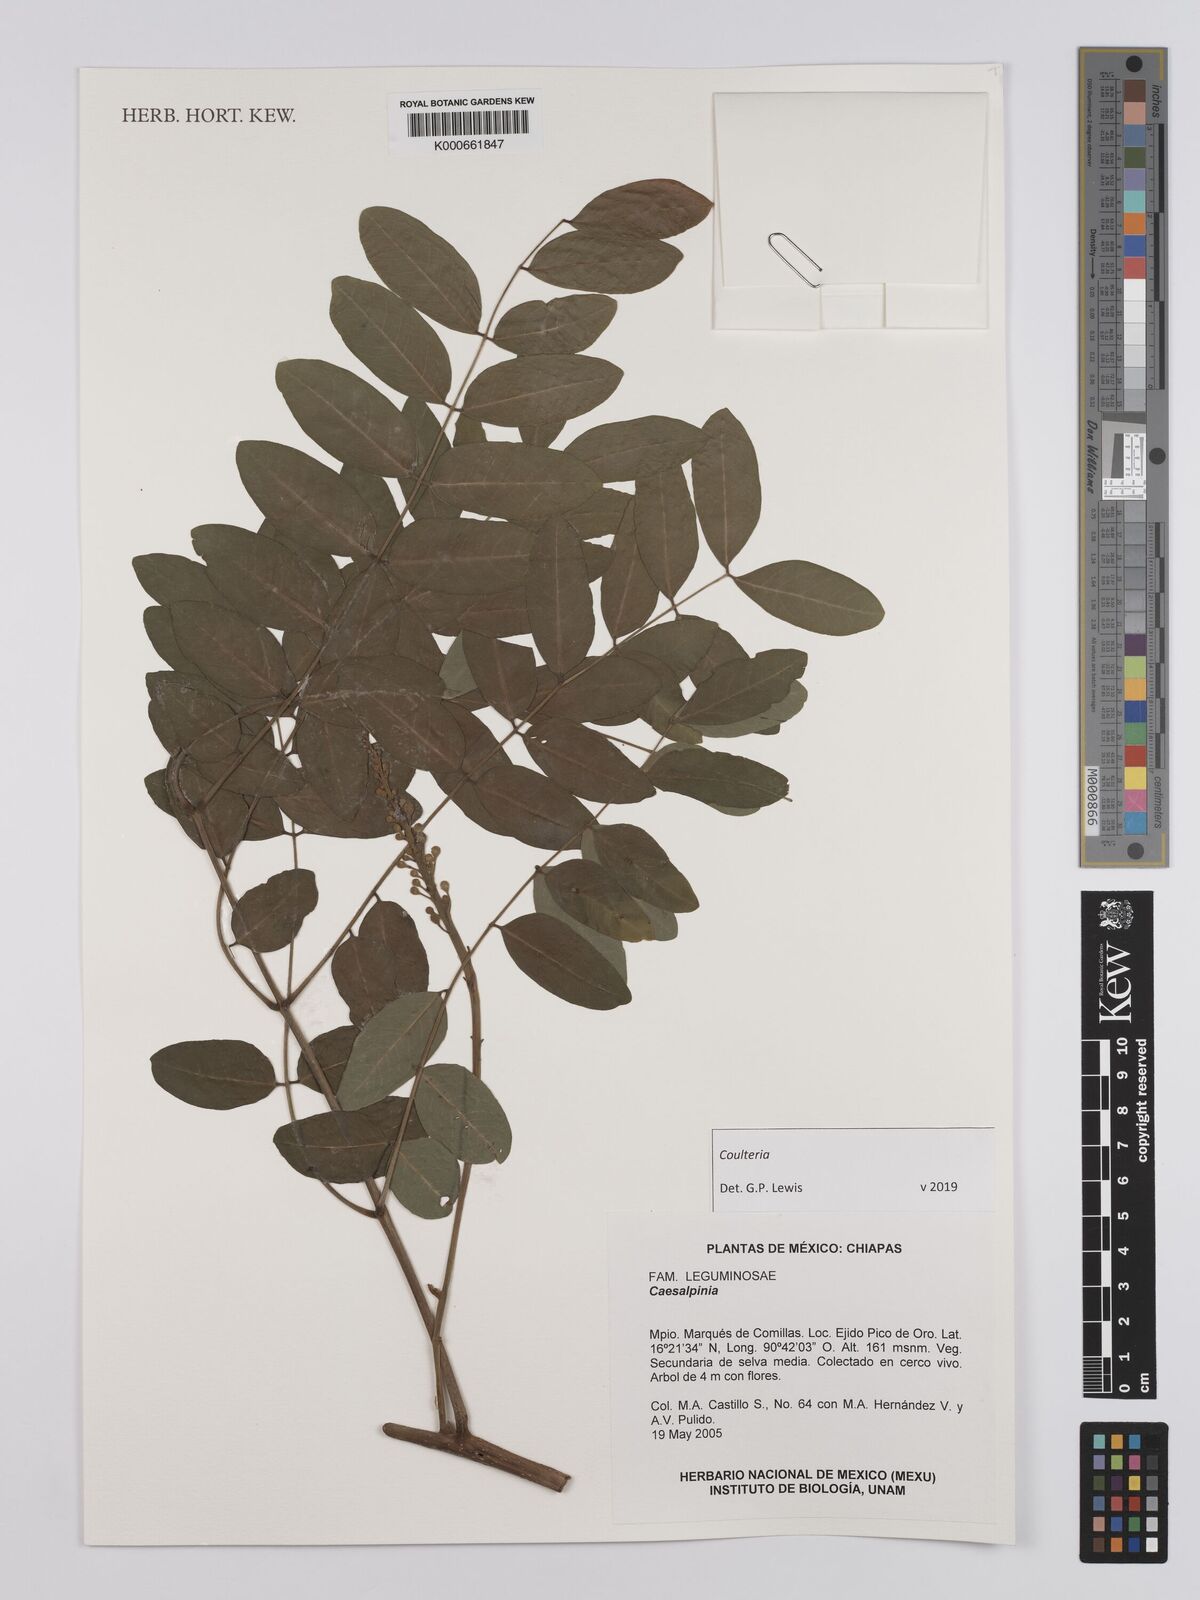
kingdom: Plantae
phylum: Tracheophyta
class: Magnoliopsida
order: Fabales
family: Fabaceae
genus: Coulteria
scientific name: Coulteria
